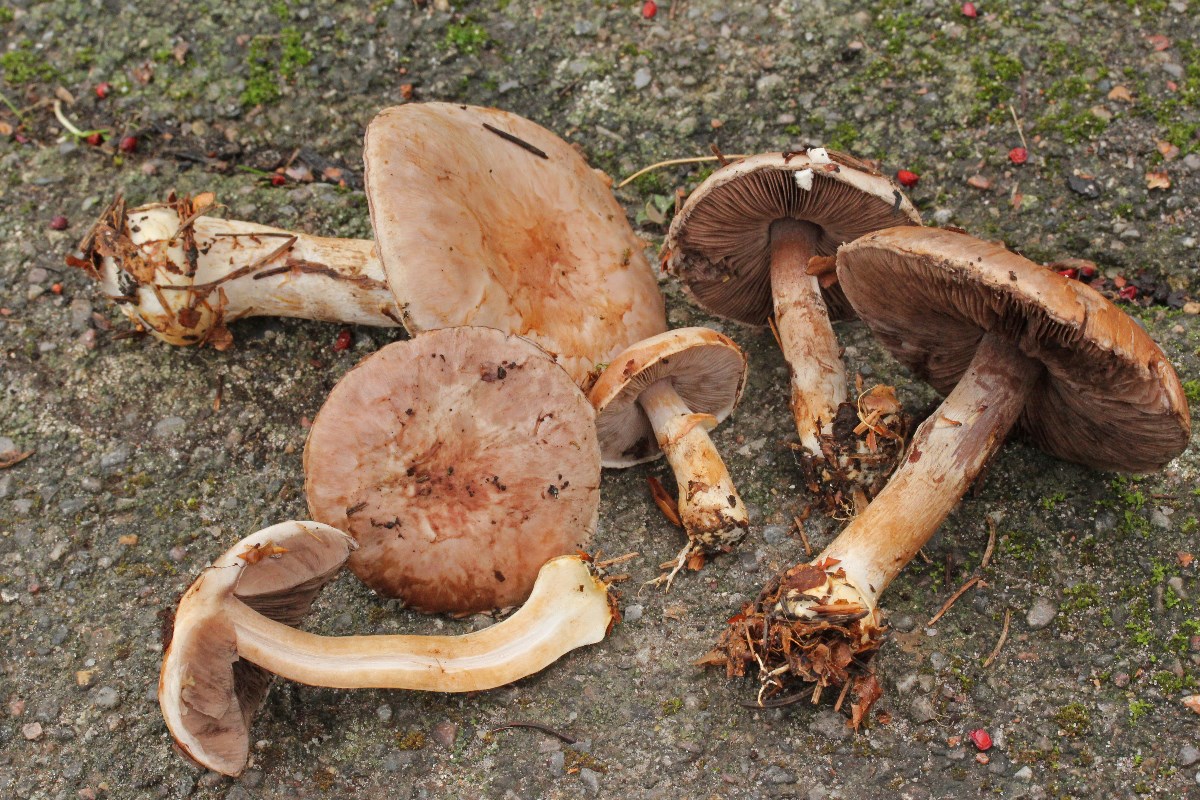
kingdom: Fungi
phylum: Basidiomycota
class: Agaricomycetes
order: Agaricales
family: Agaricaceae
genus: Agaricus
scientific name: Agaricus brunneolus
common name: purpur-champignon
